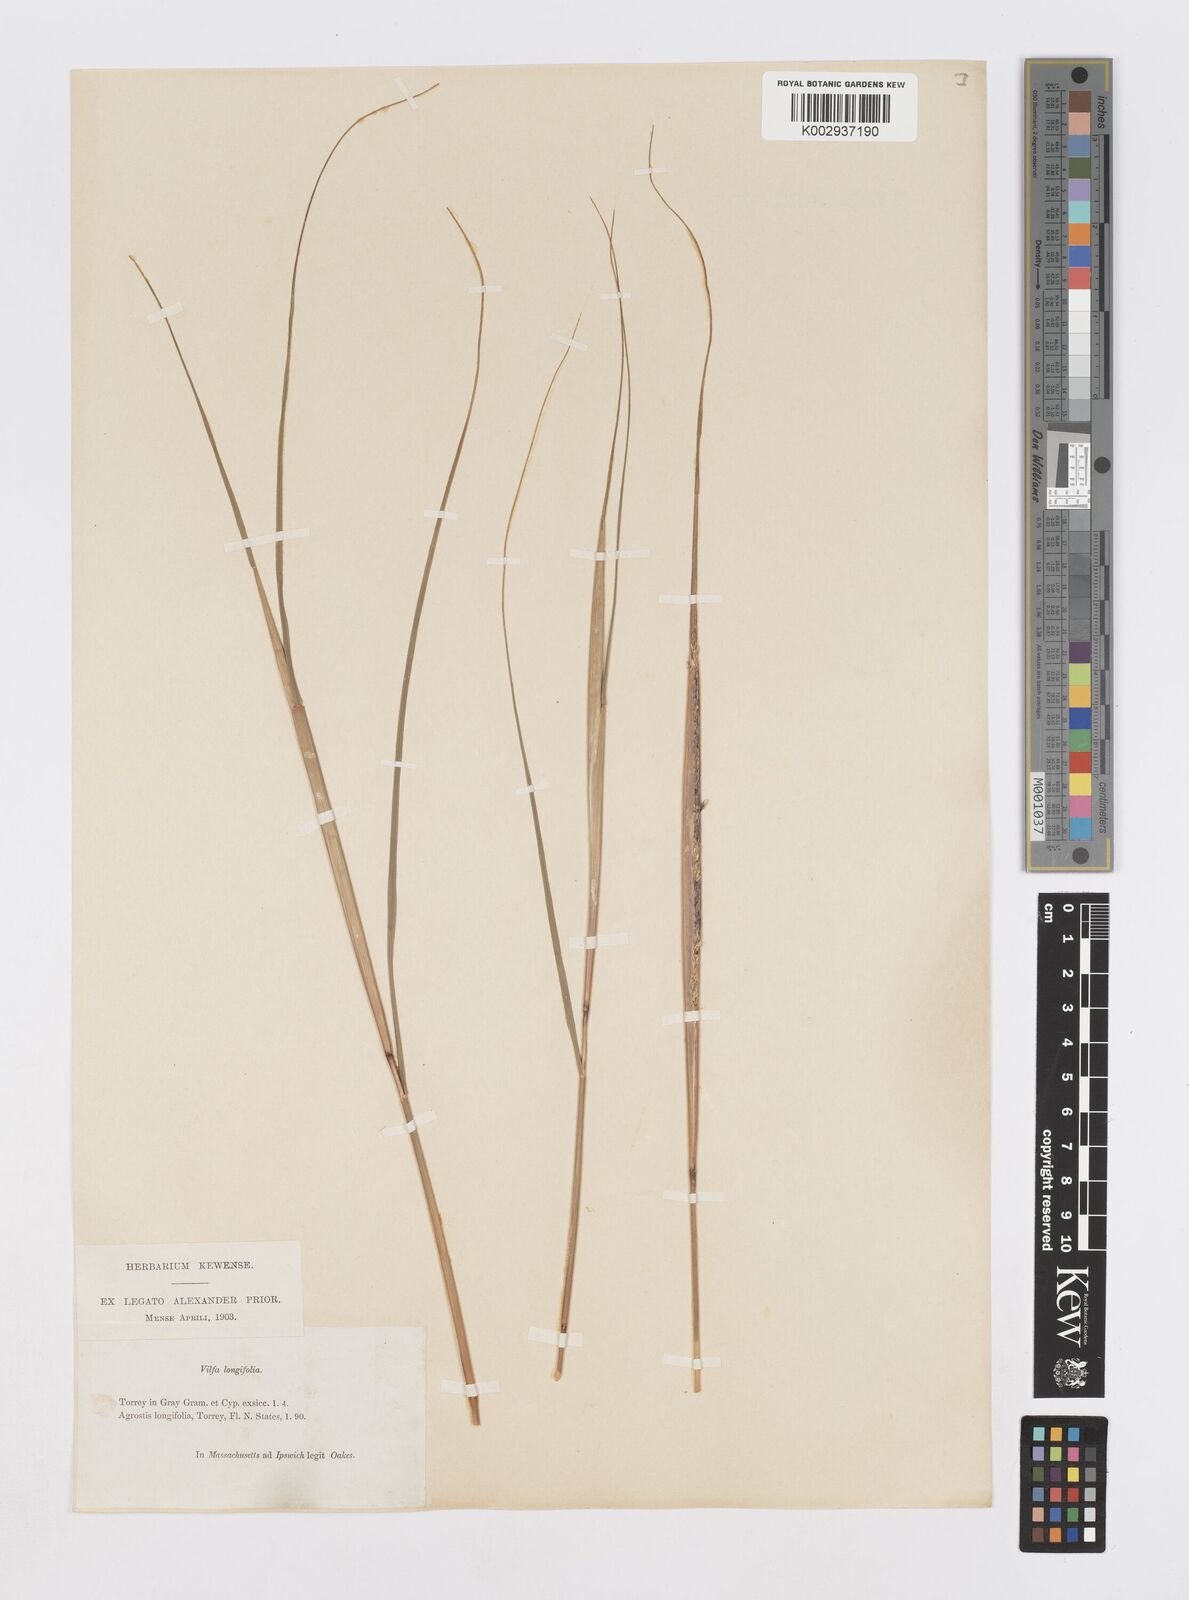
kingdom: Plantae
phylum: Tracheophyta
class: Liliopsida
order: Poales
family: Poaceae
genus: Sporobolus
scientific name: Sporobolus compositus
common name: Rough dropseed
